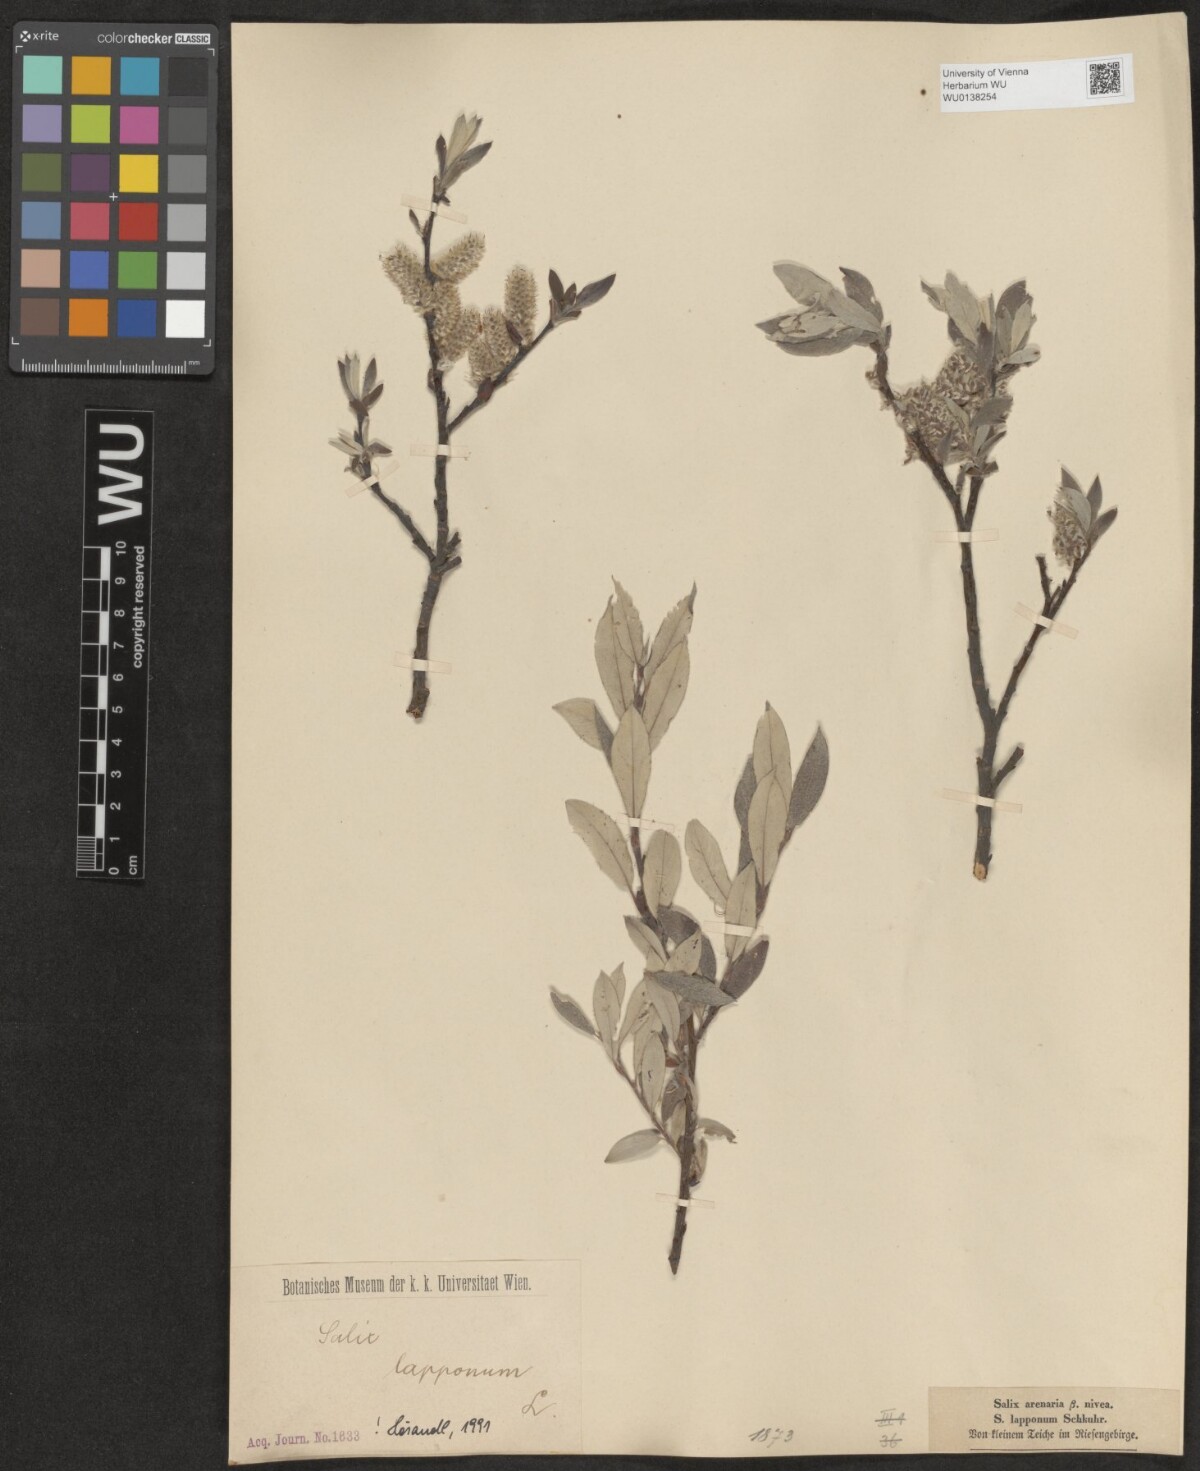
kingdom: Plantae
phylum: Tracheophyta
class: Magnoliopsida
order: Malpighiales
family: Salicaceae
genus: Salix
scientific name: Salix lapponum
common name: Downy willow
